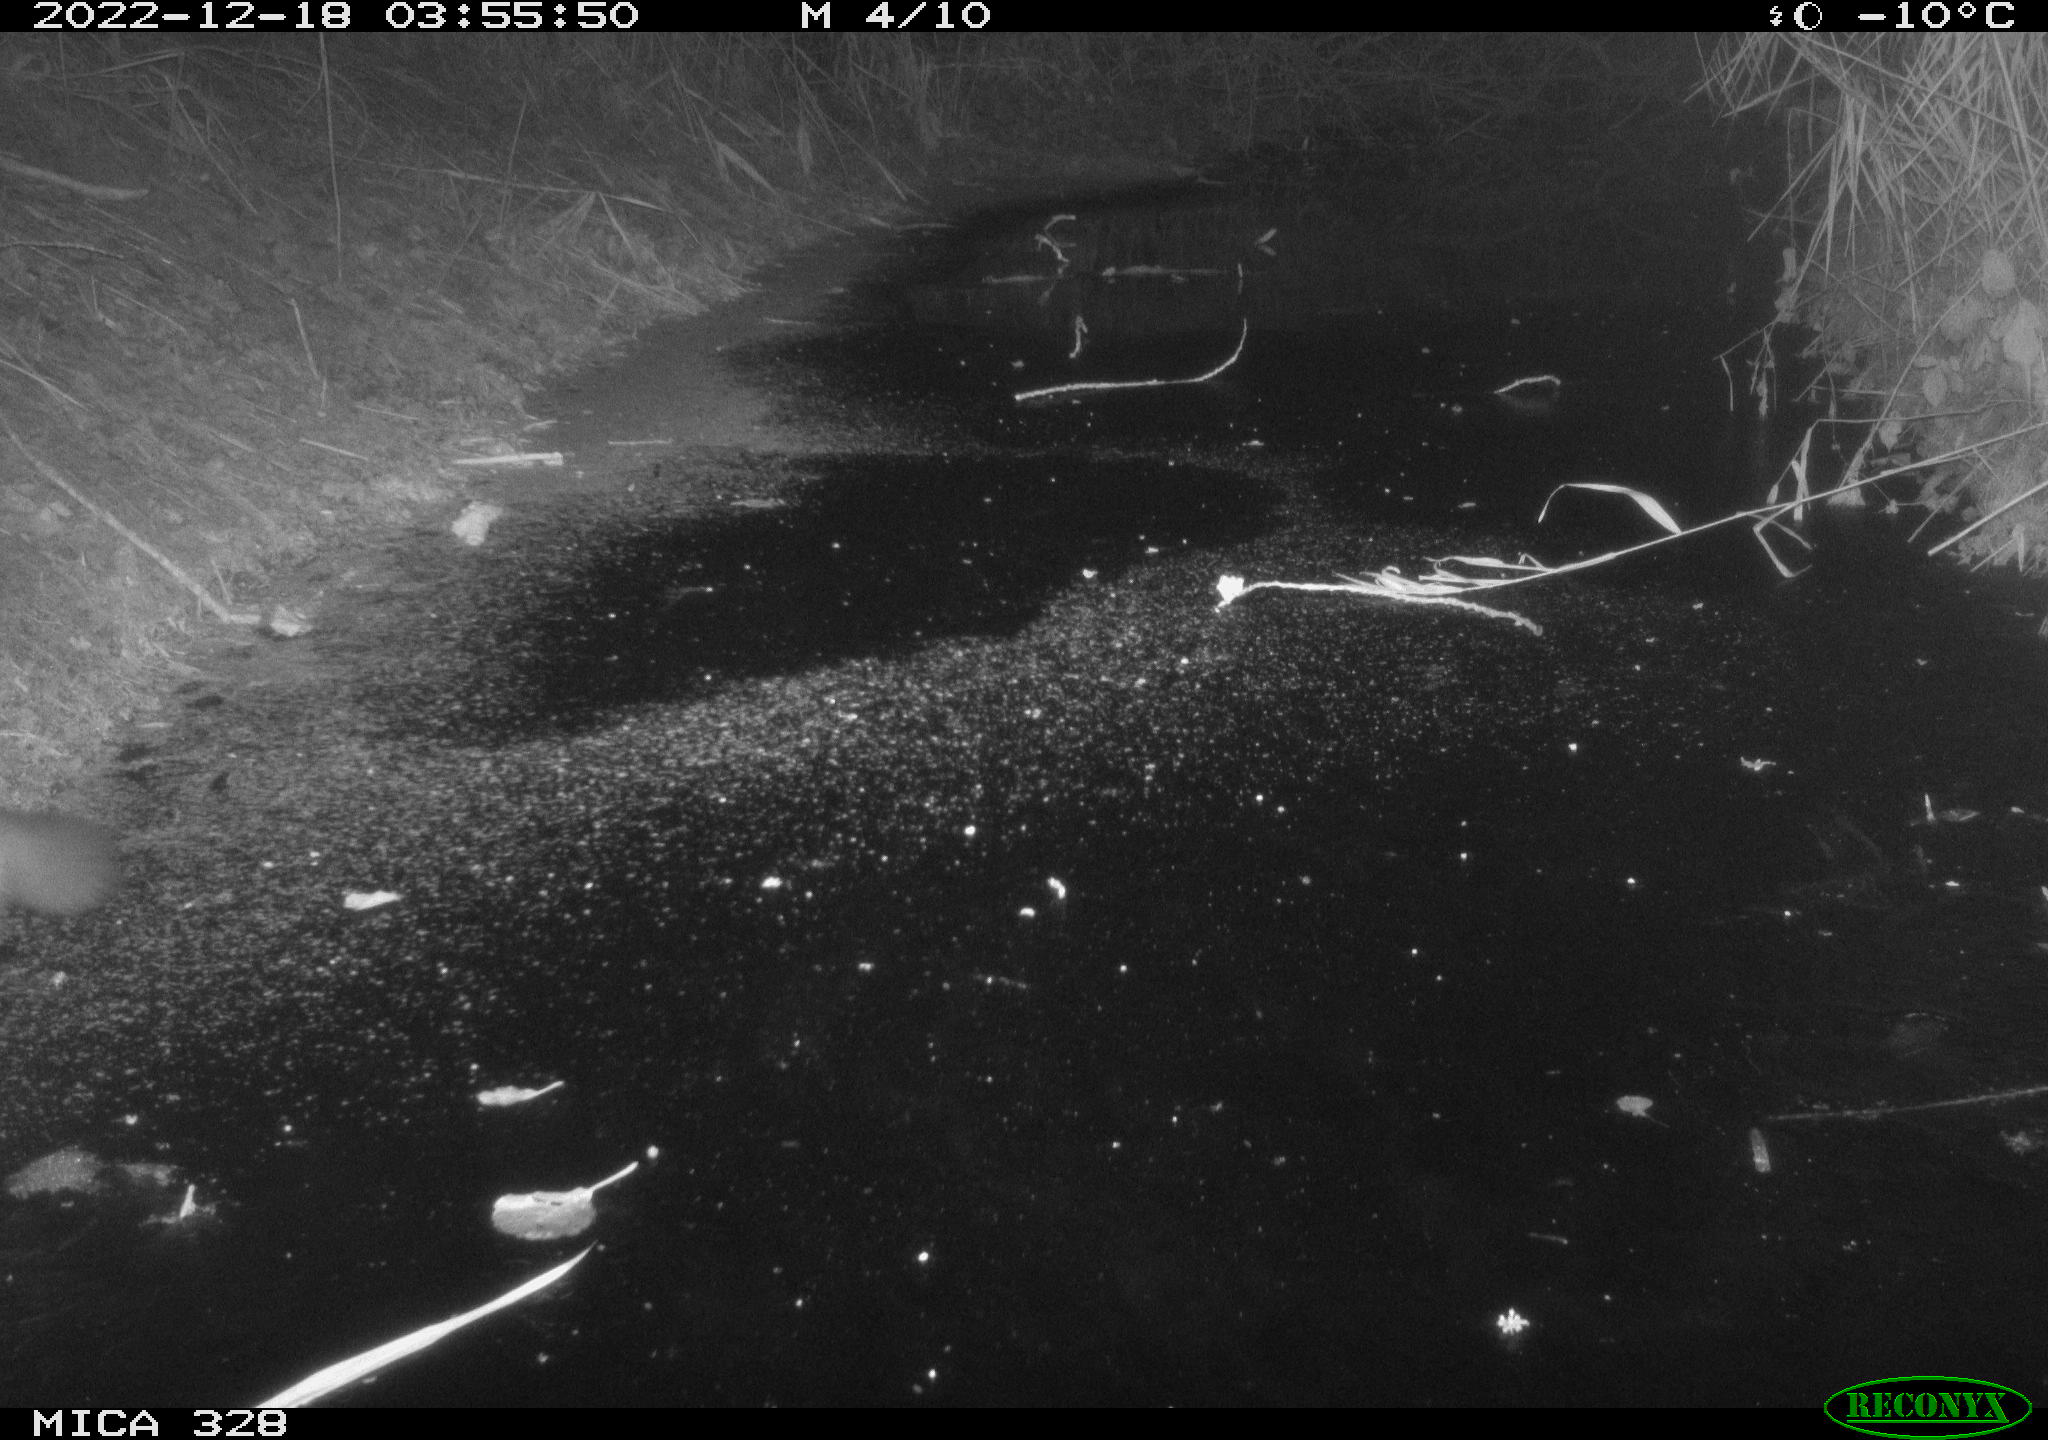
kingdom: Animalia
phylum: Chordata
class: Mammalia
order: Carnivora
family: Mustelidae
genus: Martes
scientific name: Martes foina
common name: Beech marten
